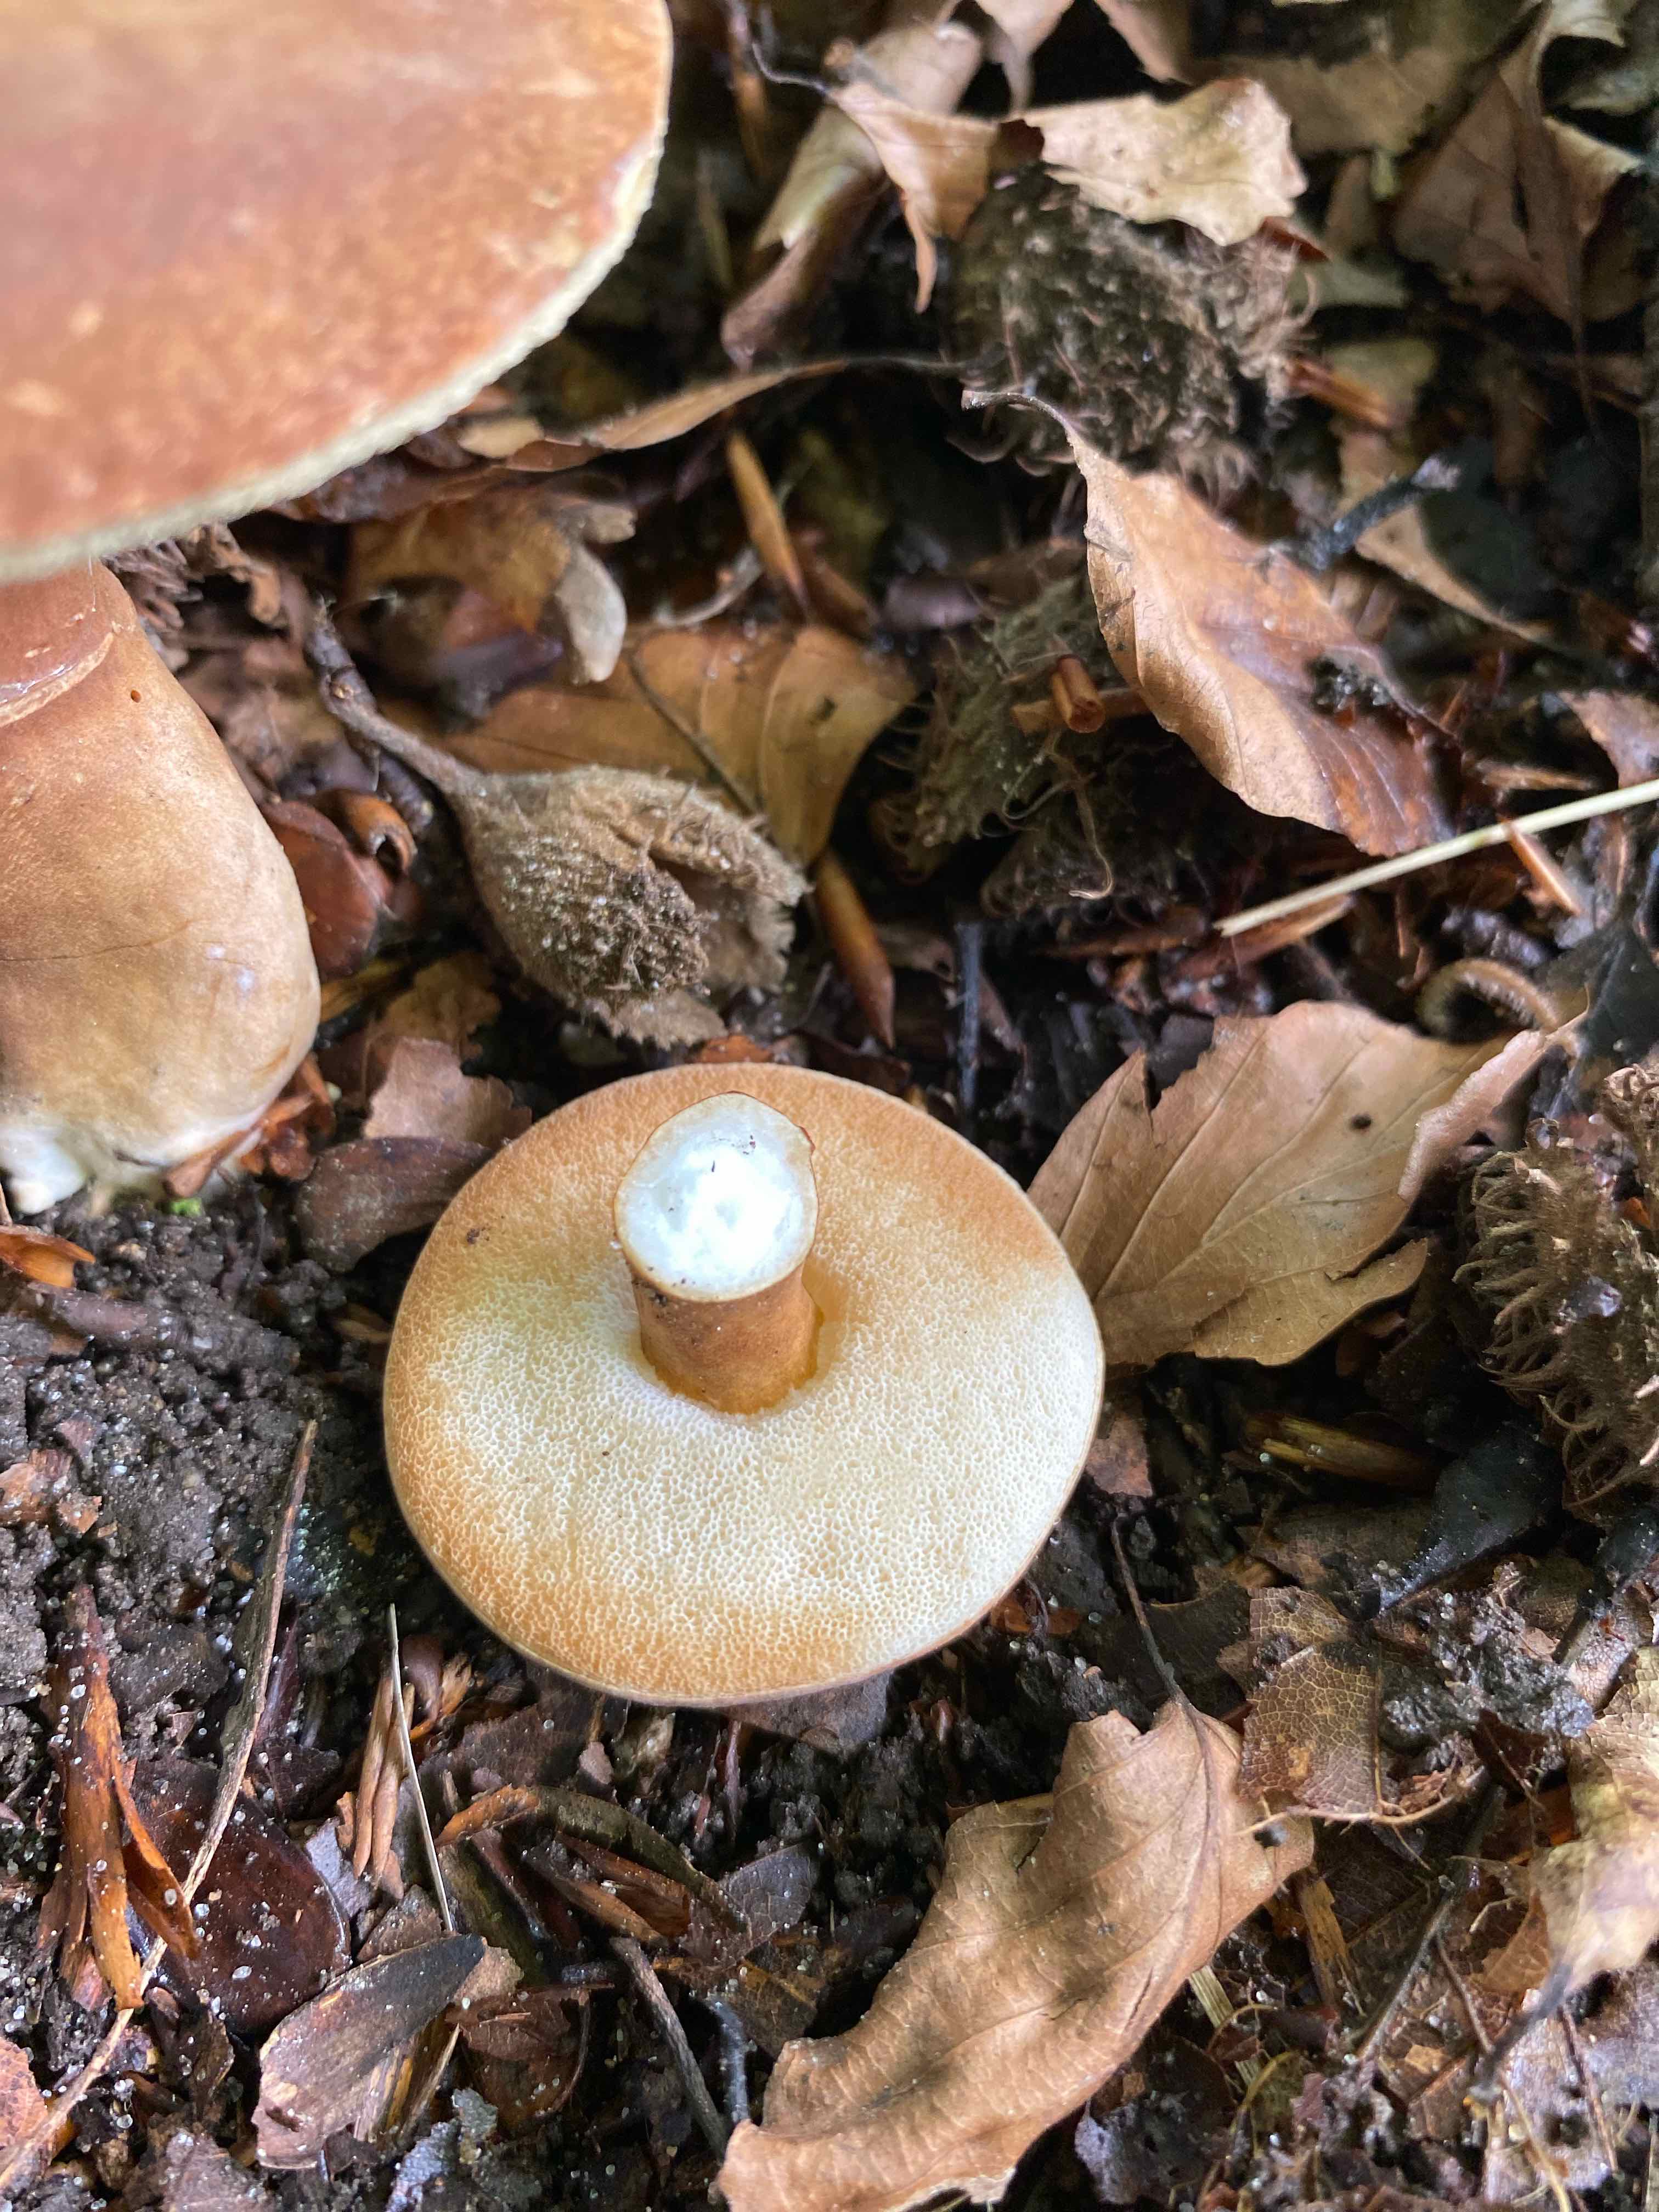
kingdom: Fungi
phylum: Basidiomycota
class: Agaricomycetes
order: Boletales
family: Gyroporaceae
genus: Gyroporus
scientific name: Gyroporus castaneus
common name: kastanie-kammerrørhat
